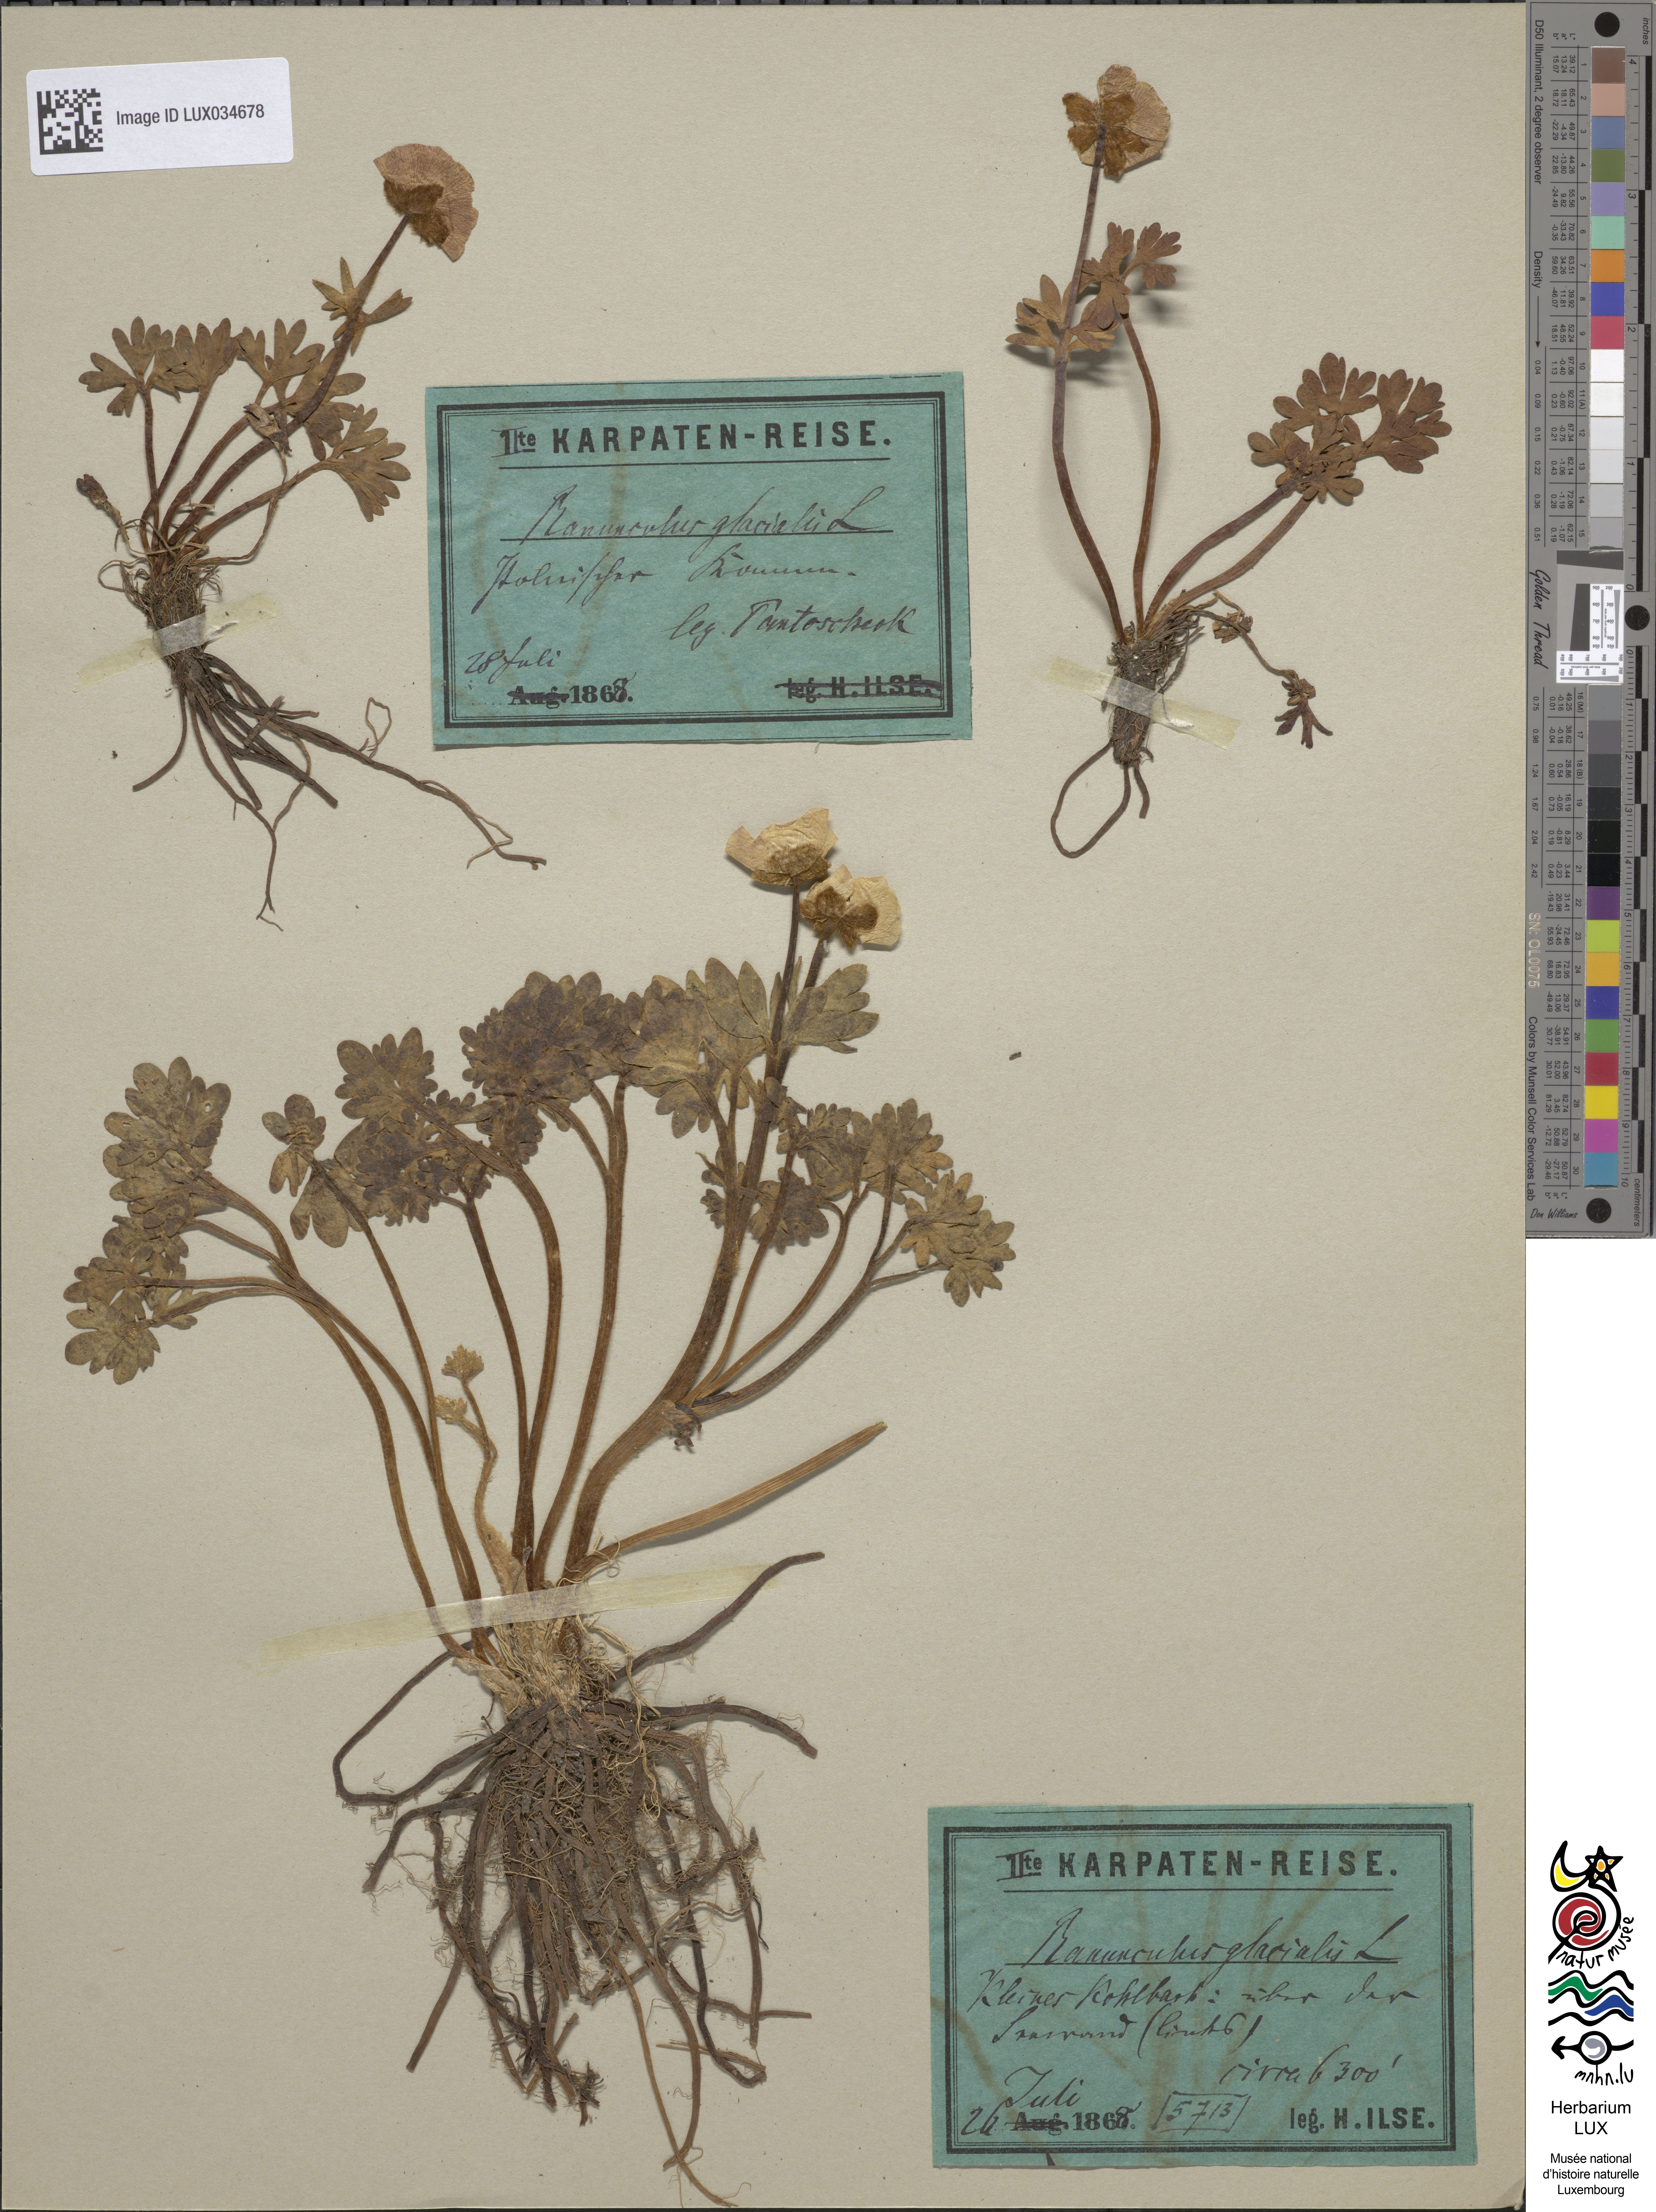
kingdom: Plantae
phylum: Tracheophyta
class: Magnoliopsida
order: Ranunculales
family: Ranunculaceae
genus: Ranunculus
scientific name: Ranunculus glacialis
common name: Glacier buttercup
